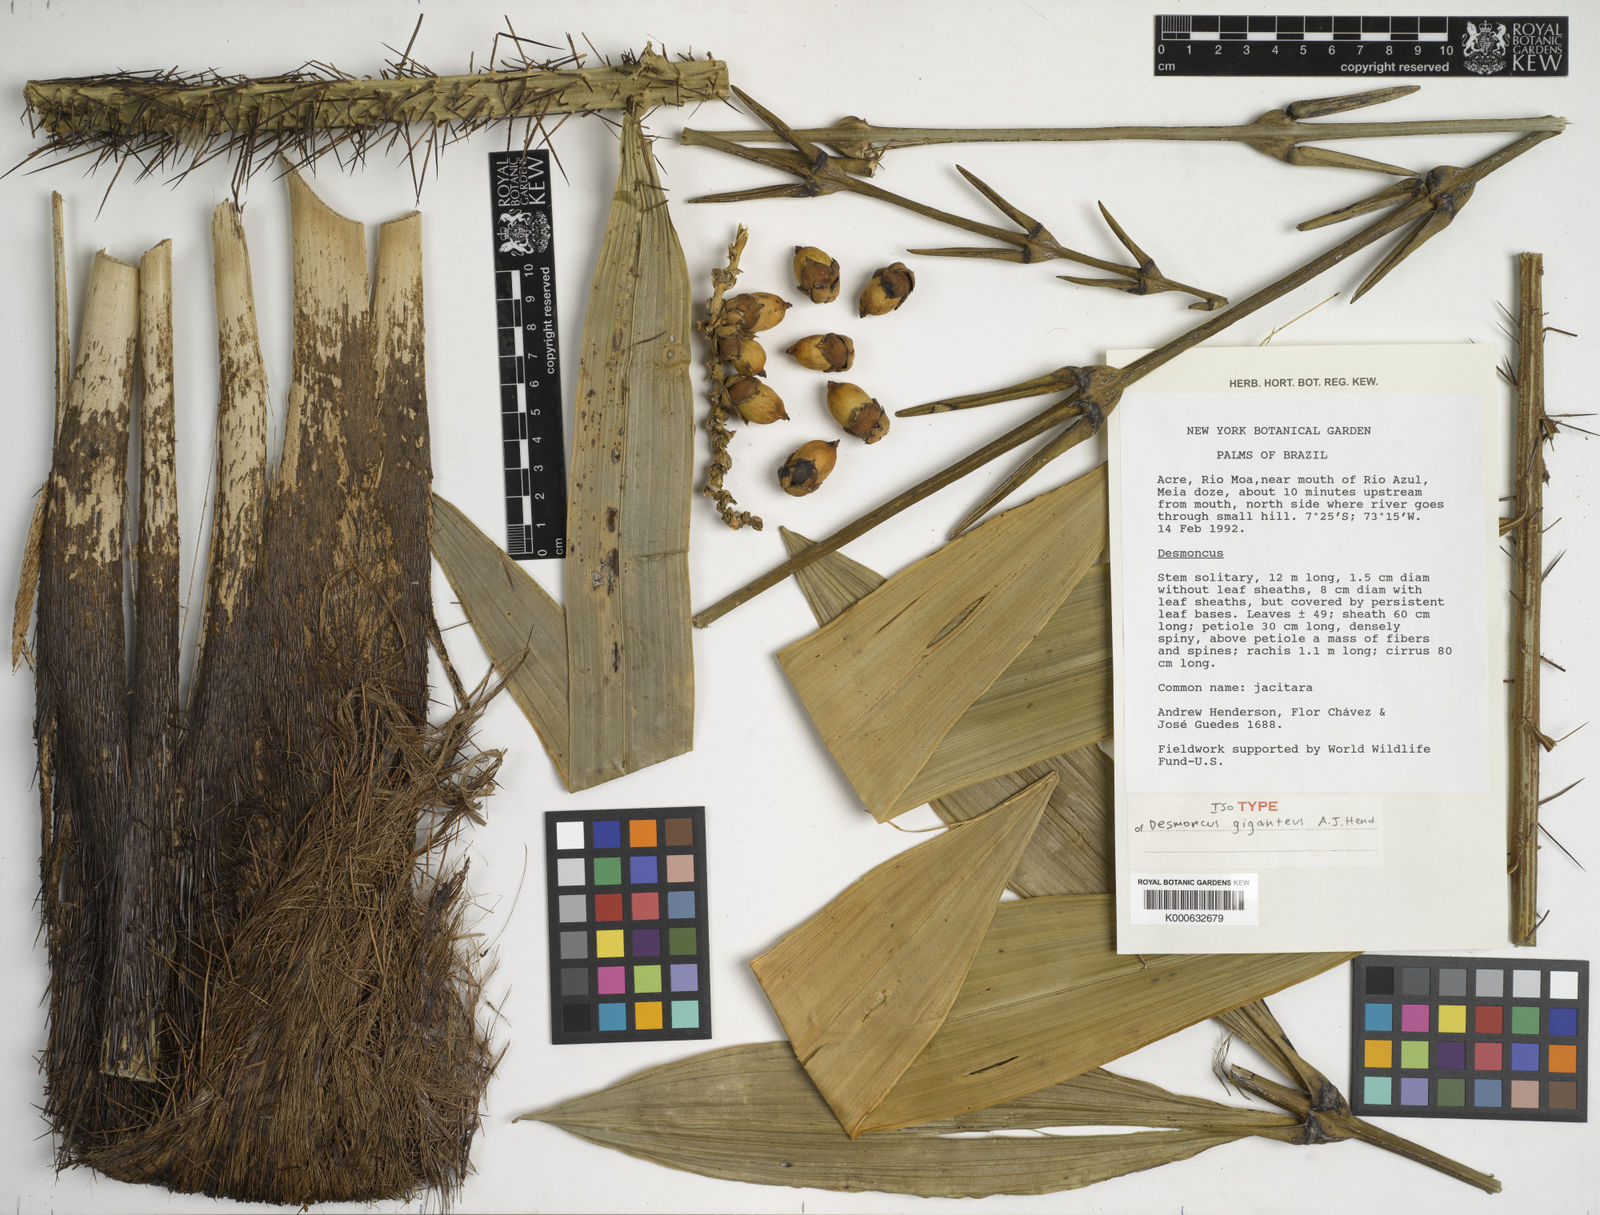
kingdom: Plantae
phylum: Tracheophyta
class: Liliopsida
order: Arecales
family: Arecaceae
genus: Desmoncus
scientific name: Desmoncus giganteus
